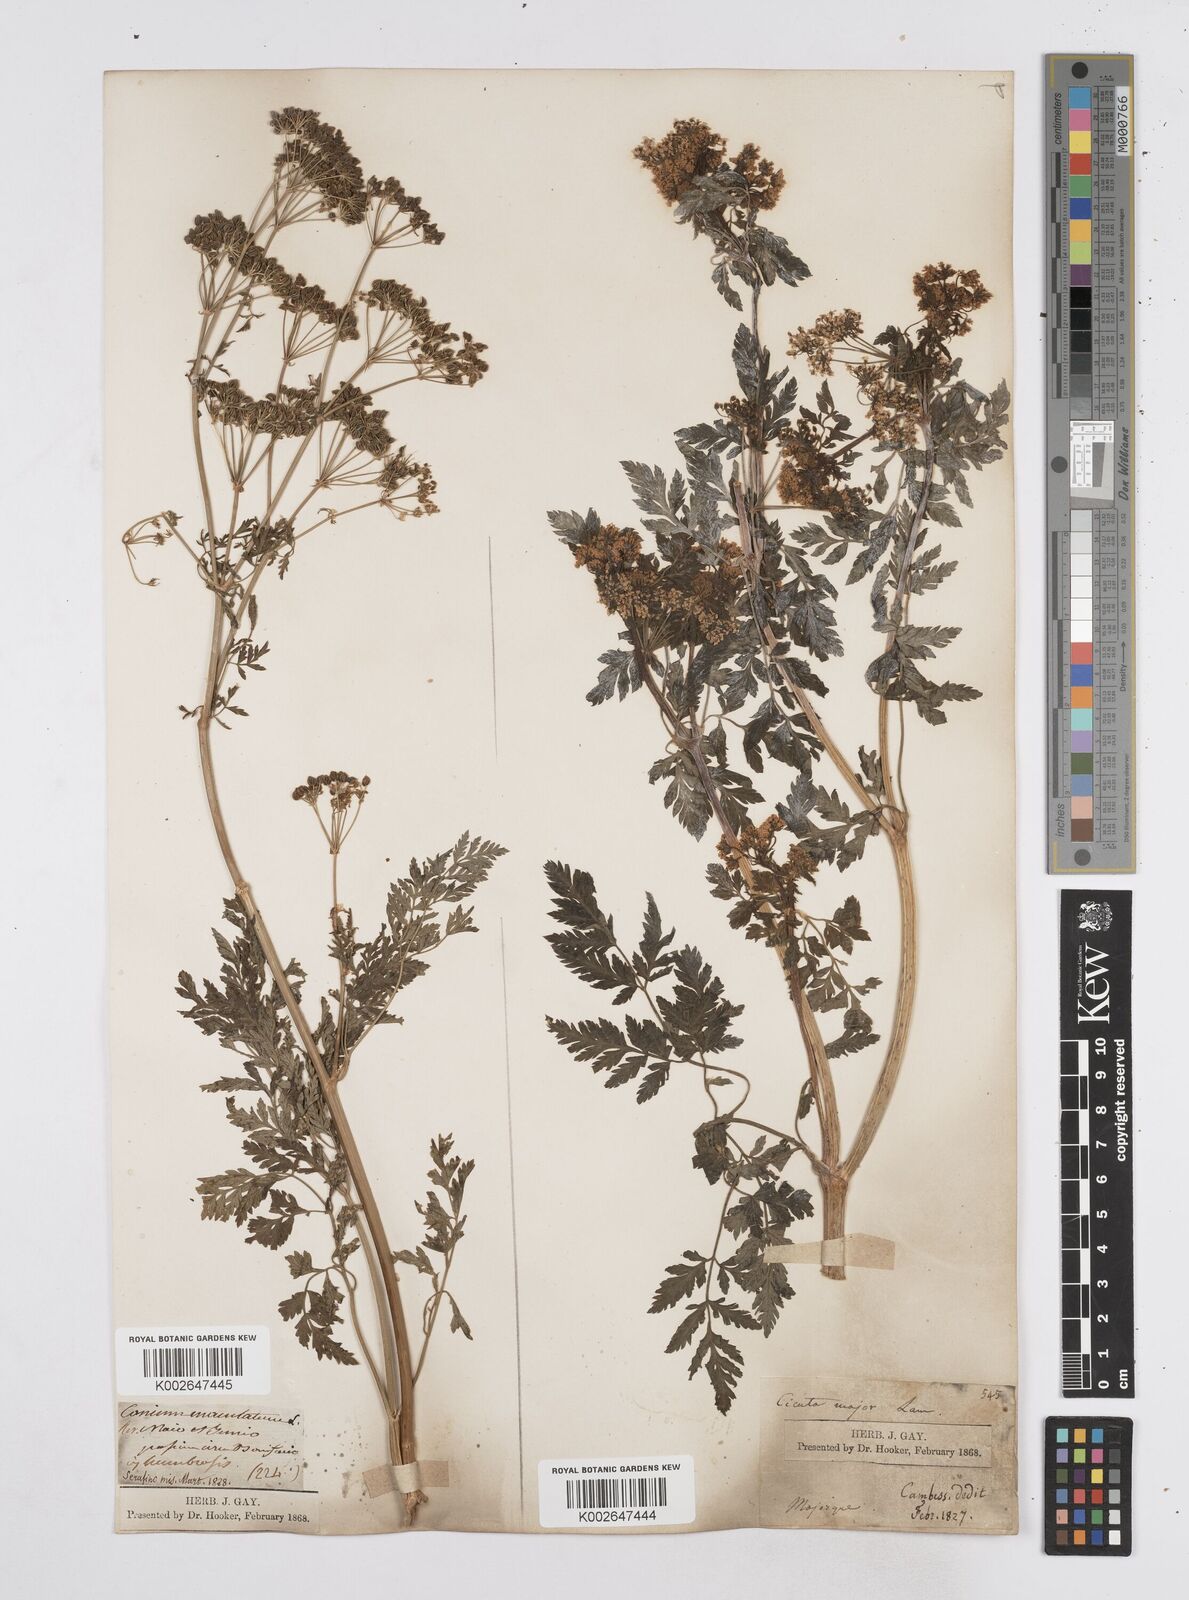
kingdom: Plantae
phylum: Tracheophyta
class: Magnoliopsida
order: Apiales
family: Apiaceae
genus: Conium
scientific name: Conium maculatum
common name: Hemlock
